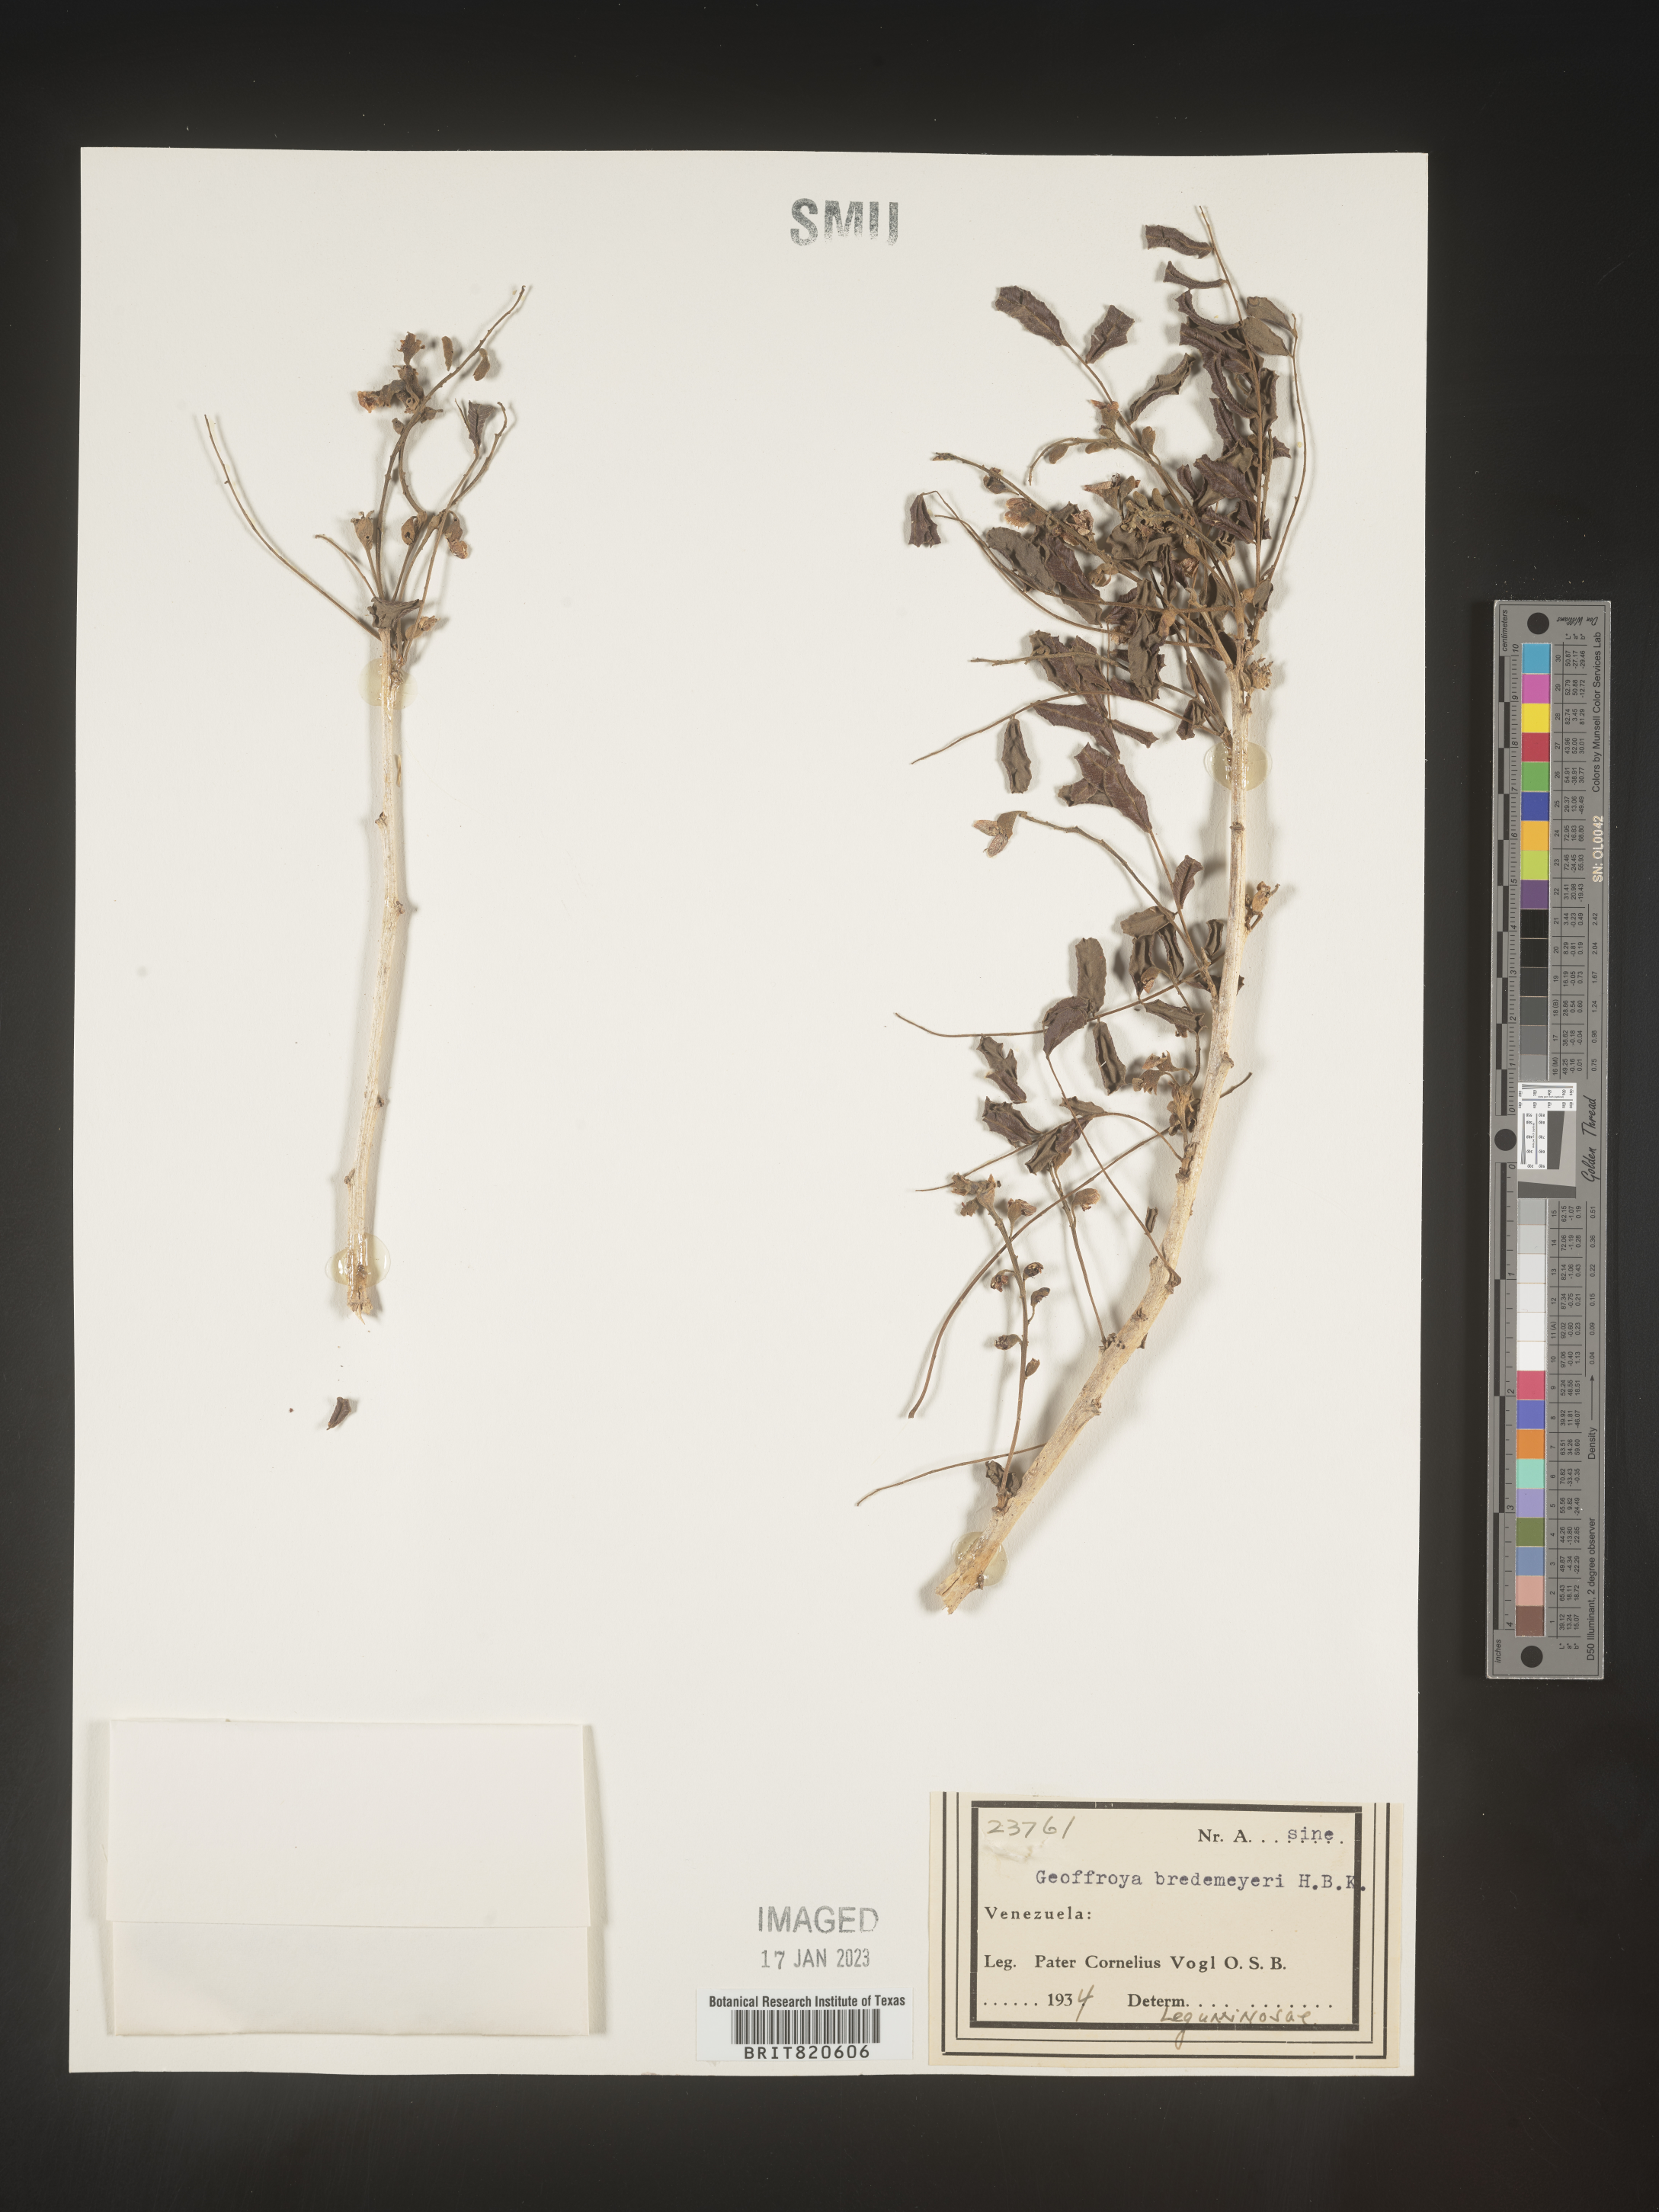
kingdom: Plantae
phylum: Tracheophyta
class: Magnoliopsida
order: Fabales
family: Fabaceae
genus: Geoffroea
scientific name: Geoffroea
